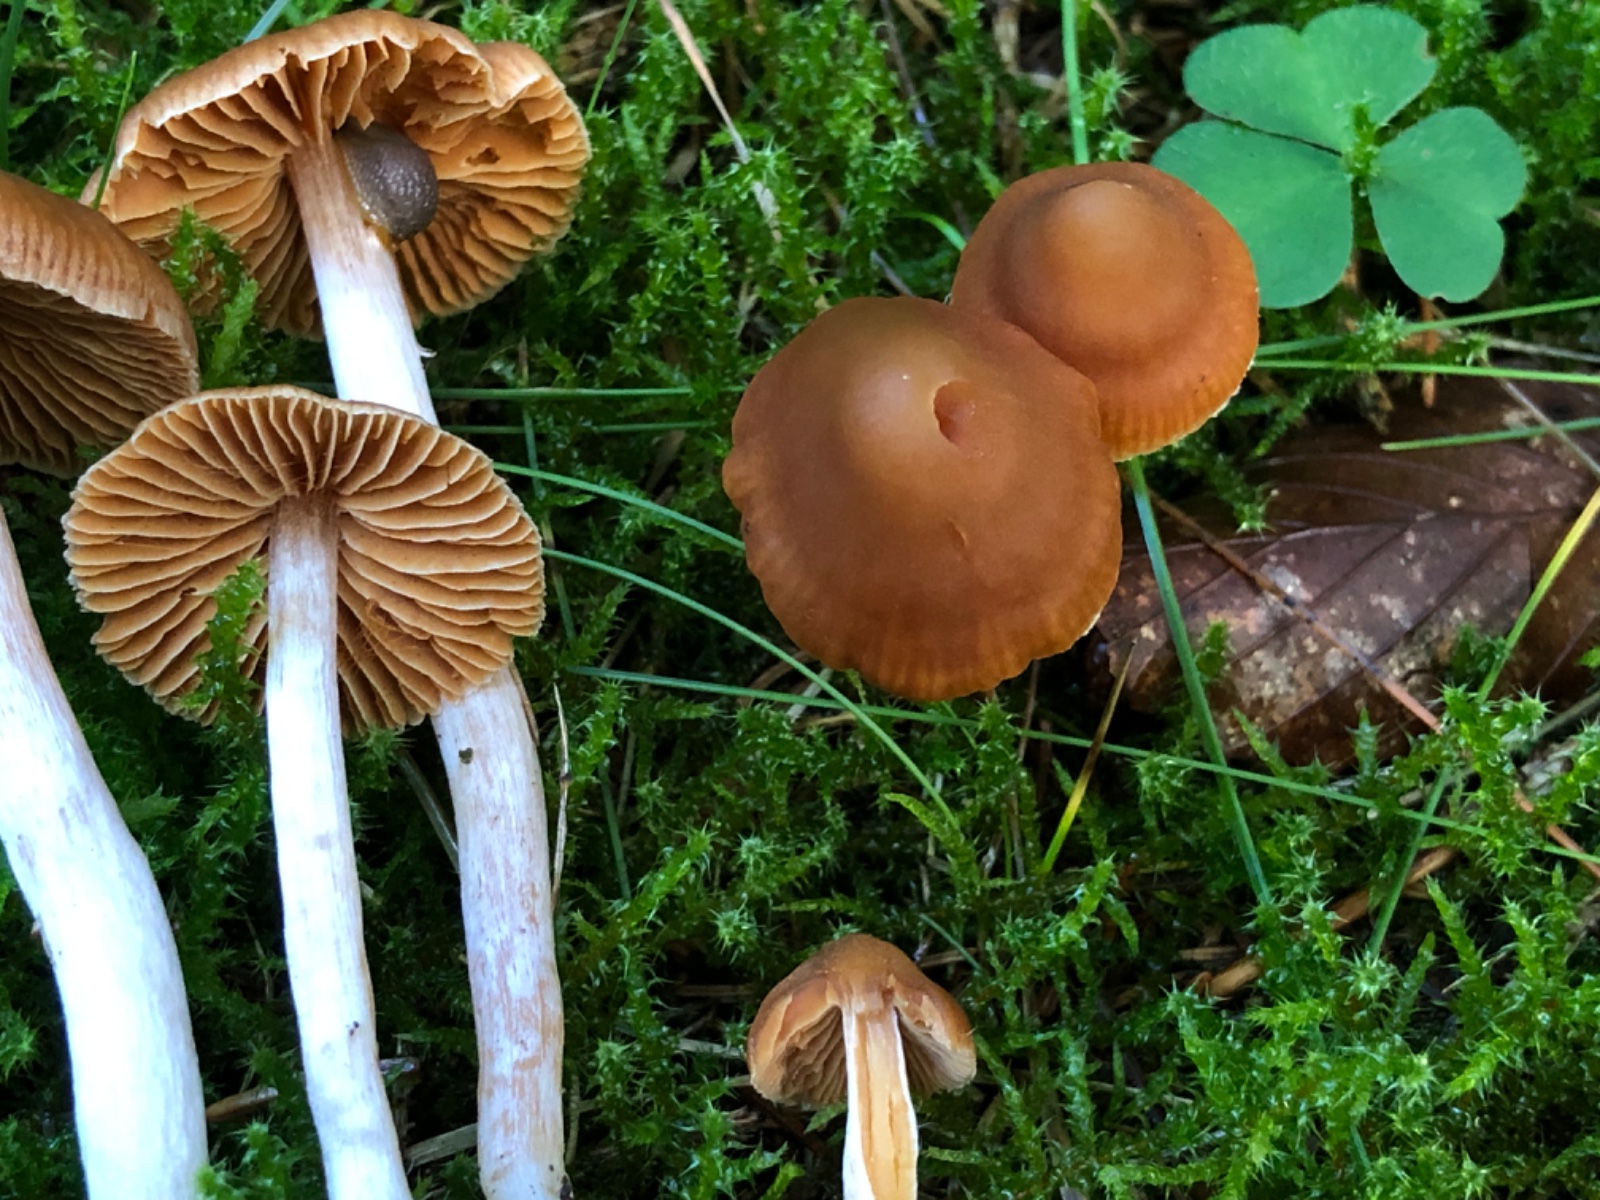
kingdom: Fungi
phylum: Basidiomycota
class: Agaricomycetes
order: Agaricales
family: Cortinariaceae
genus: Cortinarius
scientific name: Cortinarius pallidostriatoides
